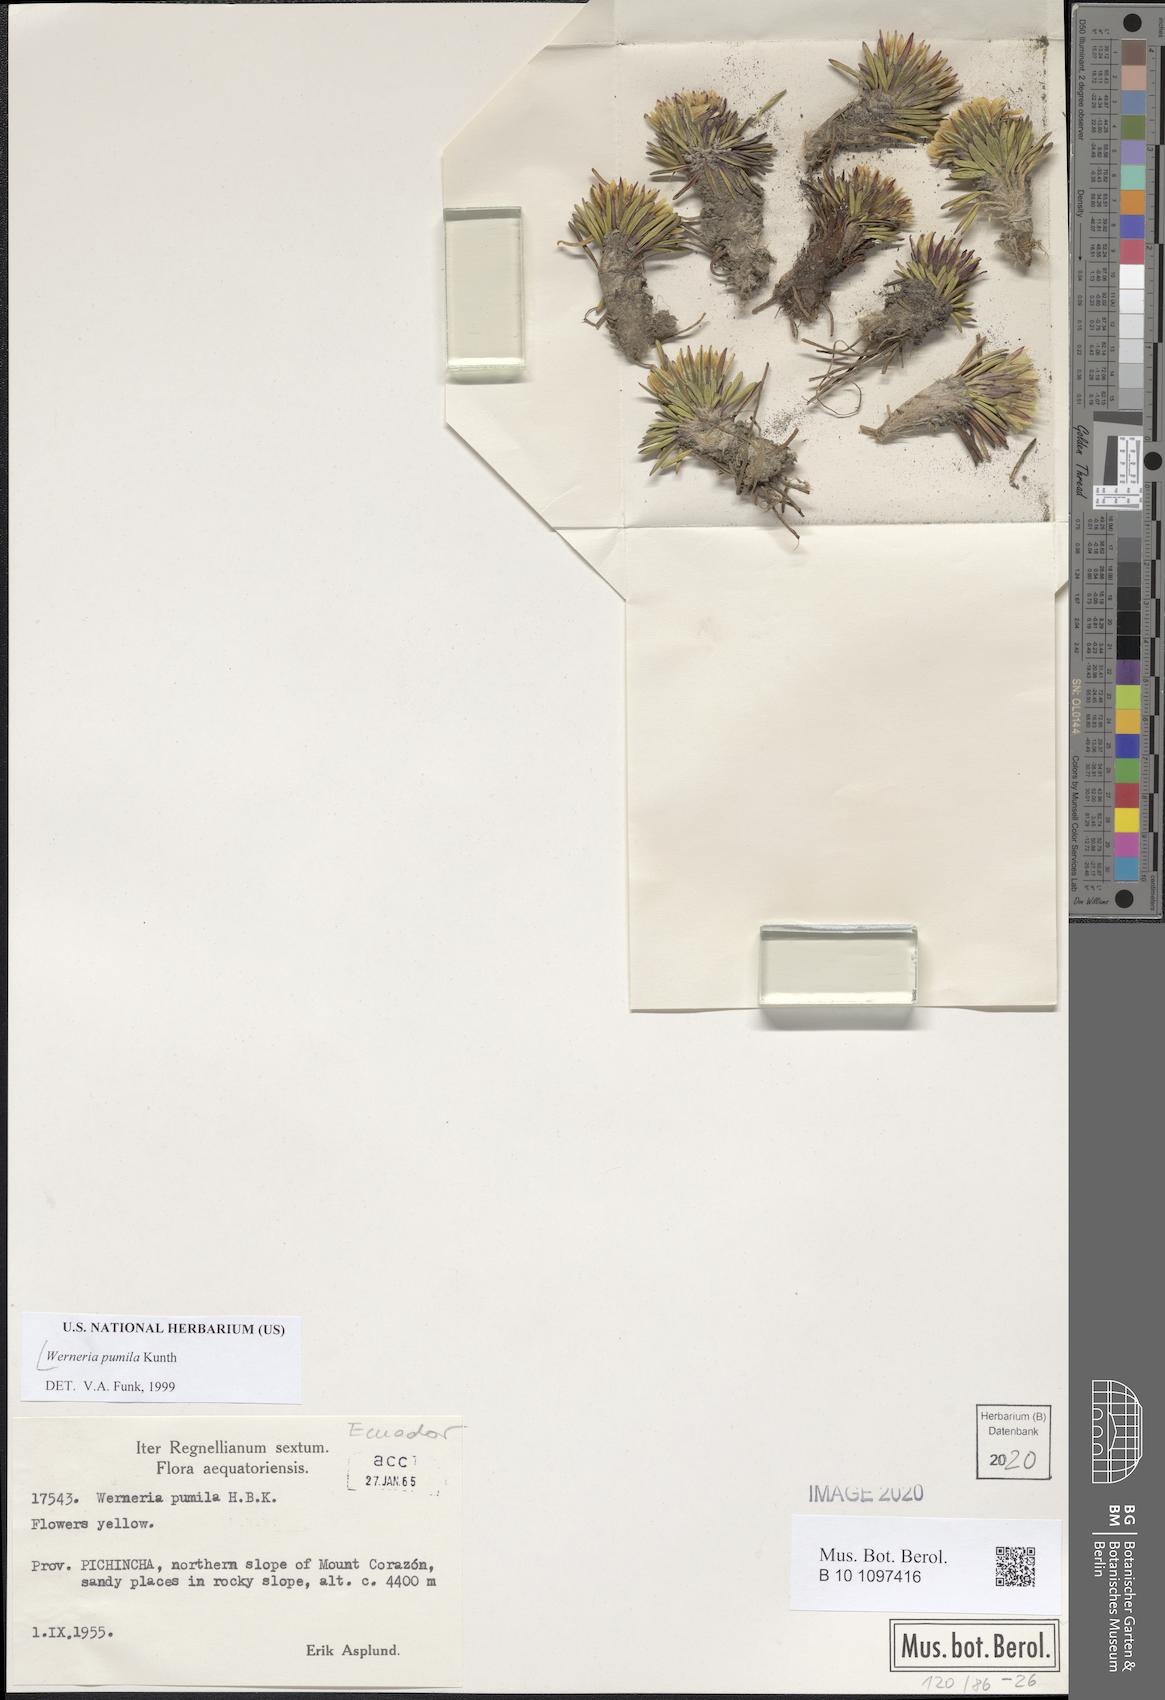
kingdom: Plantae
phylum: Tracheophyta
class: Magnoliopsida
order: Asterales
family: Asteraceae
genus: Rockhausenia
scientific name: Rockhausenia pumila
